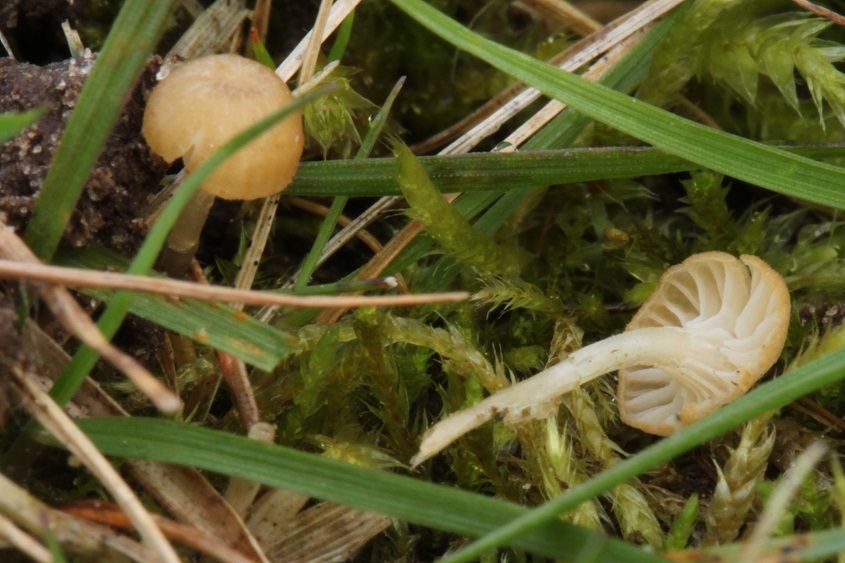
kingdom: Fungi
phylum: Basidiomycota
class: Agaricomycetes
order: Hymenochaetales
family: Rickenellaceae
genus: Rickenella
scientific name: Rickenella mellea
